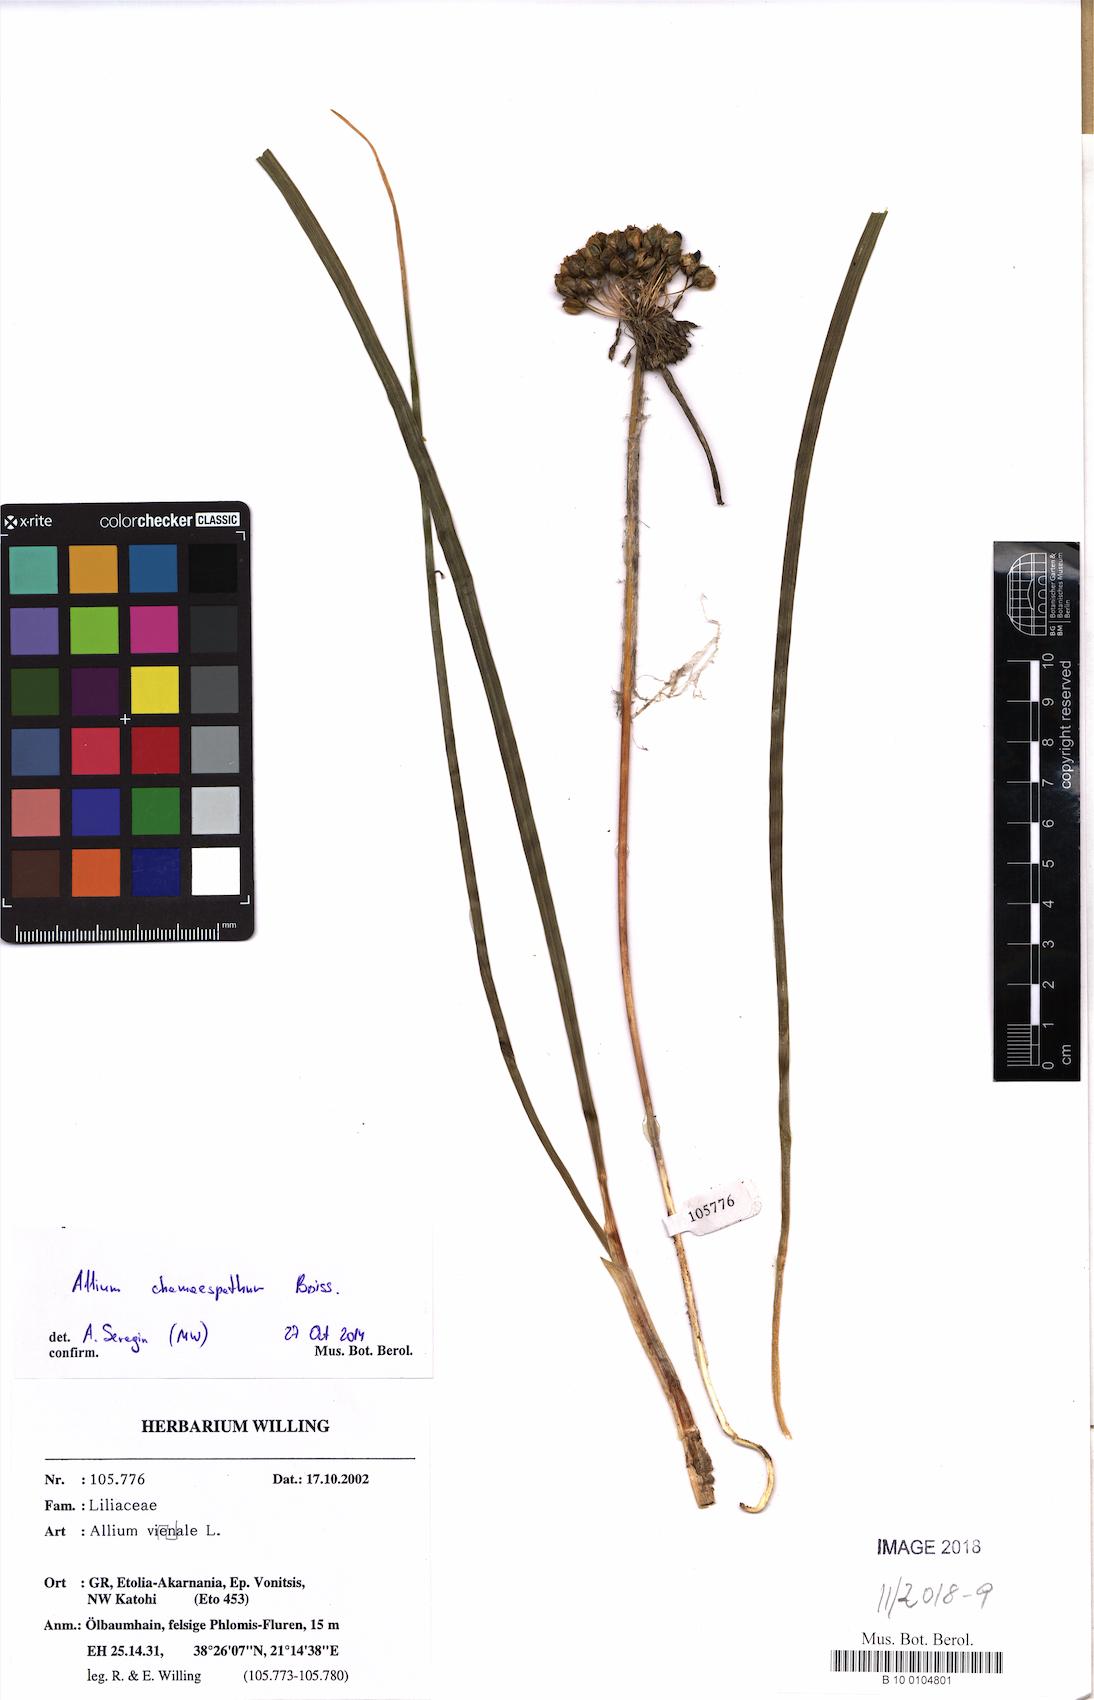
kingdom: Plantae
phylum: Tracheophyta
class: Liliopsida
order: Asparagales
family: Amaryllidaceae
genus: Allium
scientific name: Allium chamaespathum
